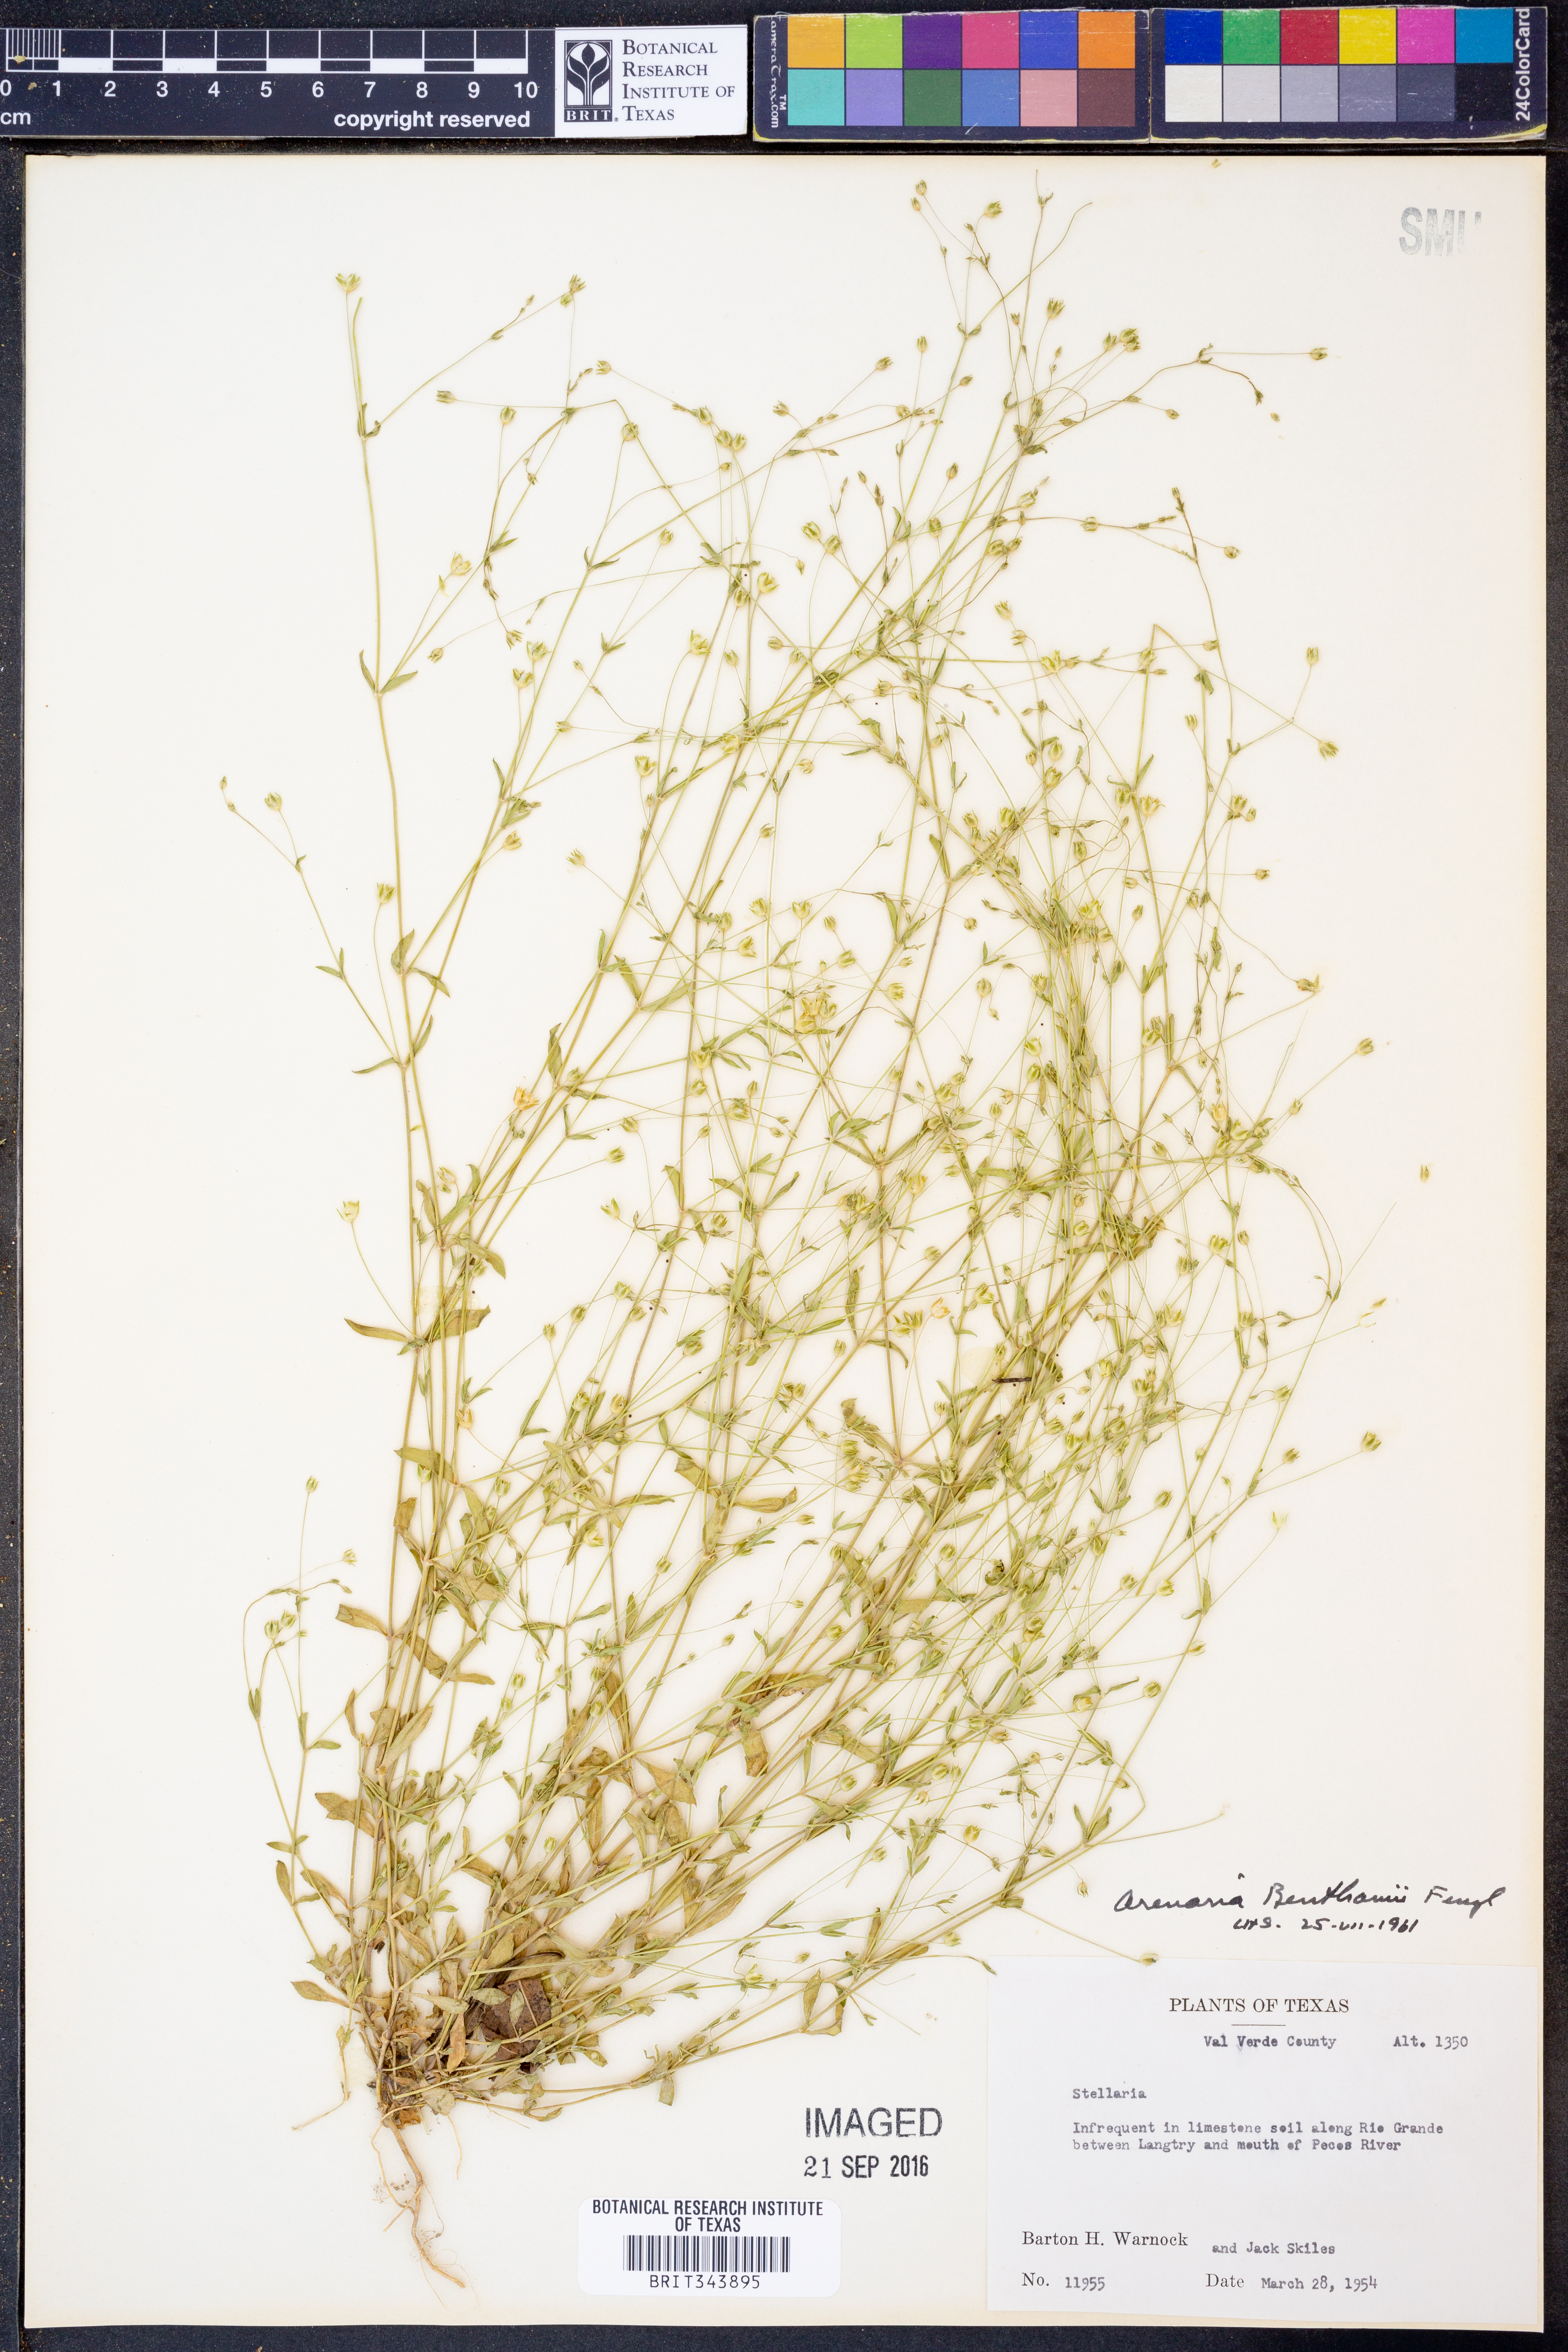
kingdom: Plantae
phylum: Tracheophyta
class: Magnoliopsida
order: Caryophyllales
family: Caryophyllaceae
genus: Arenaria
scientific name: Arenaria benthamii
